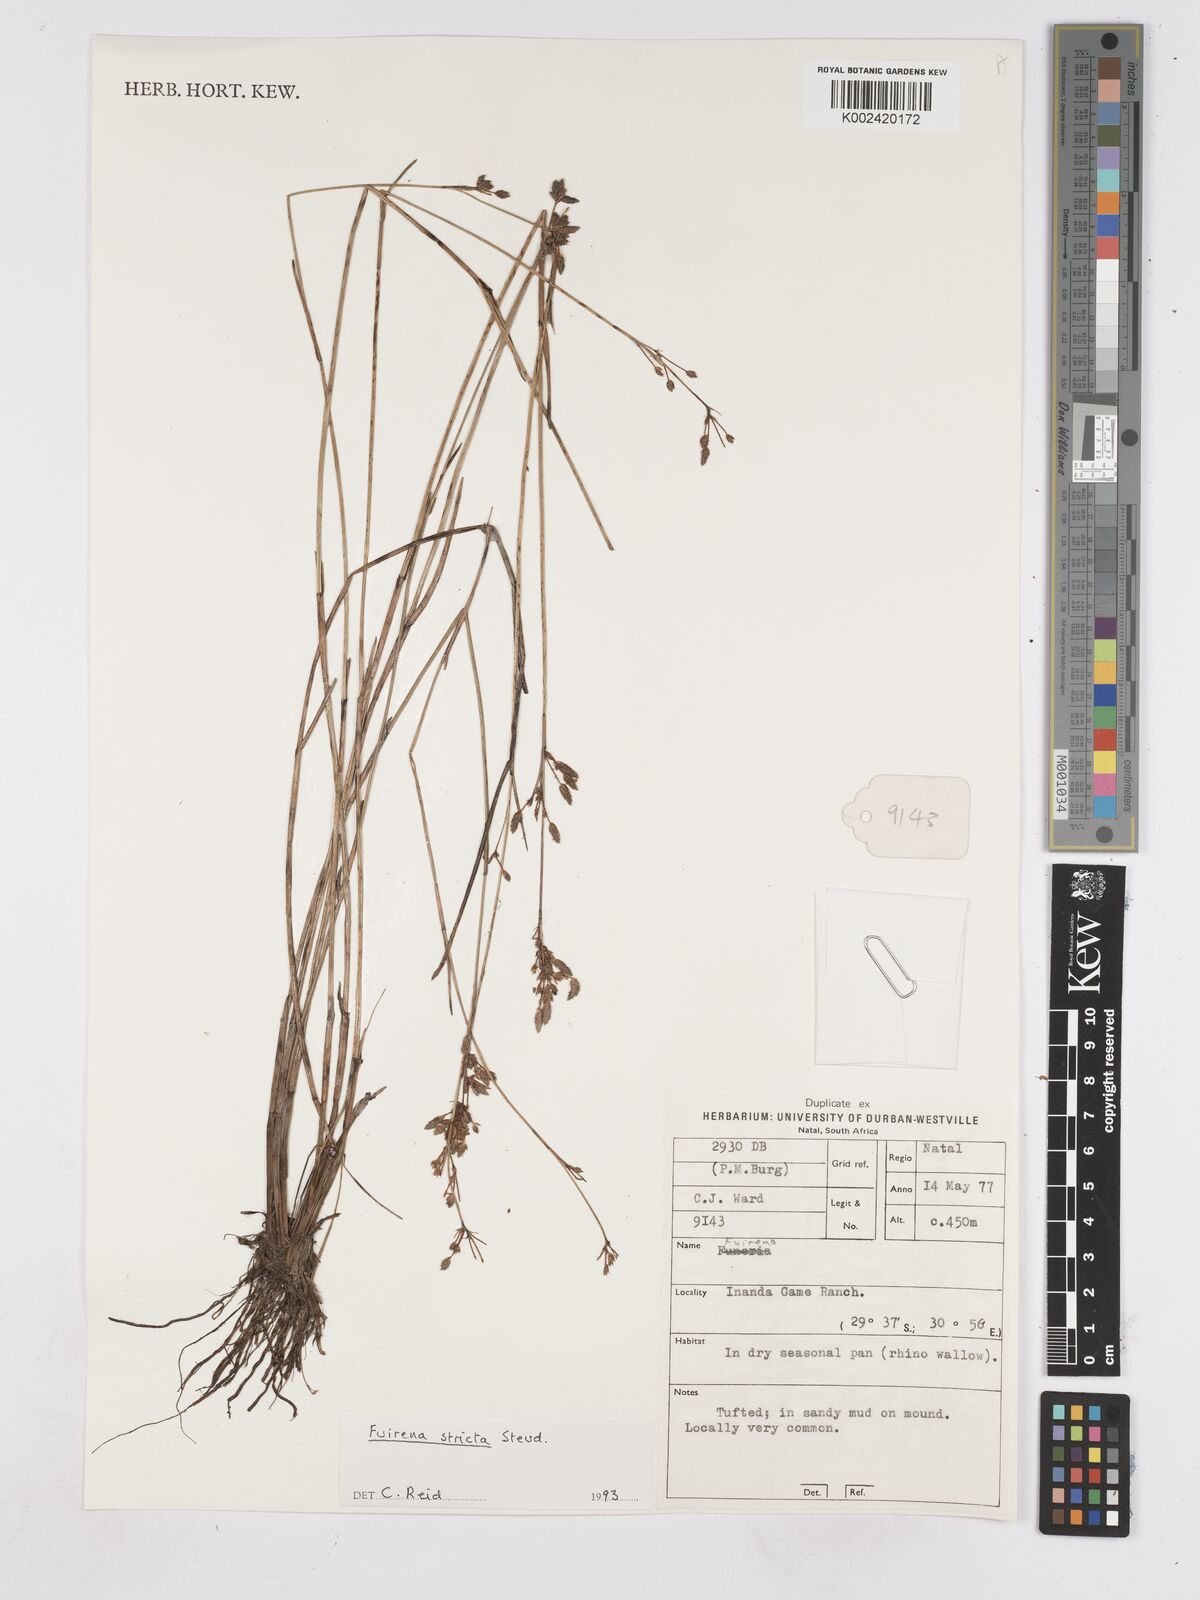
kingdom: Plantae
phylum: Tracheophyta
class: Liliopsida
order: Poales
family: Cyperaceae
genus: Fuirena
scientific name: Fuirena stricta
